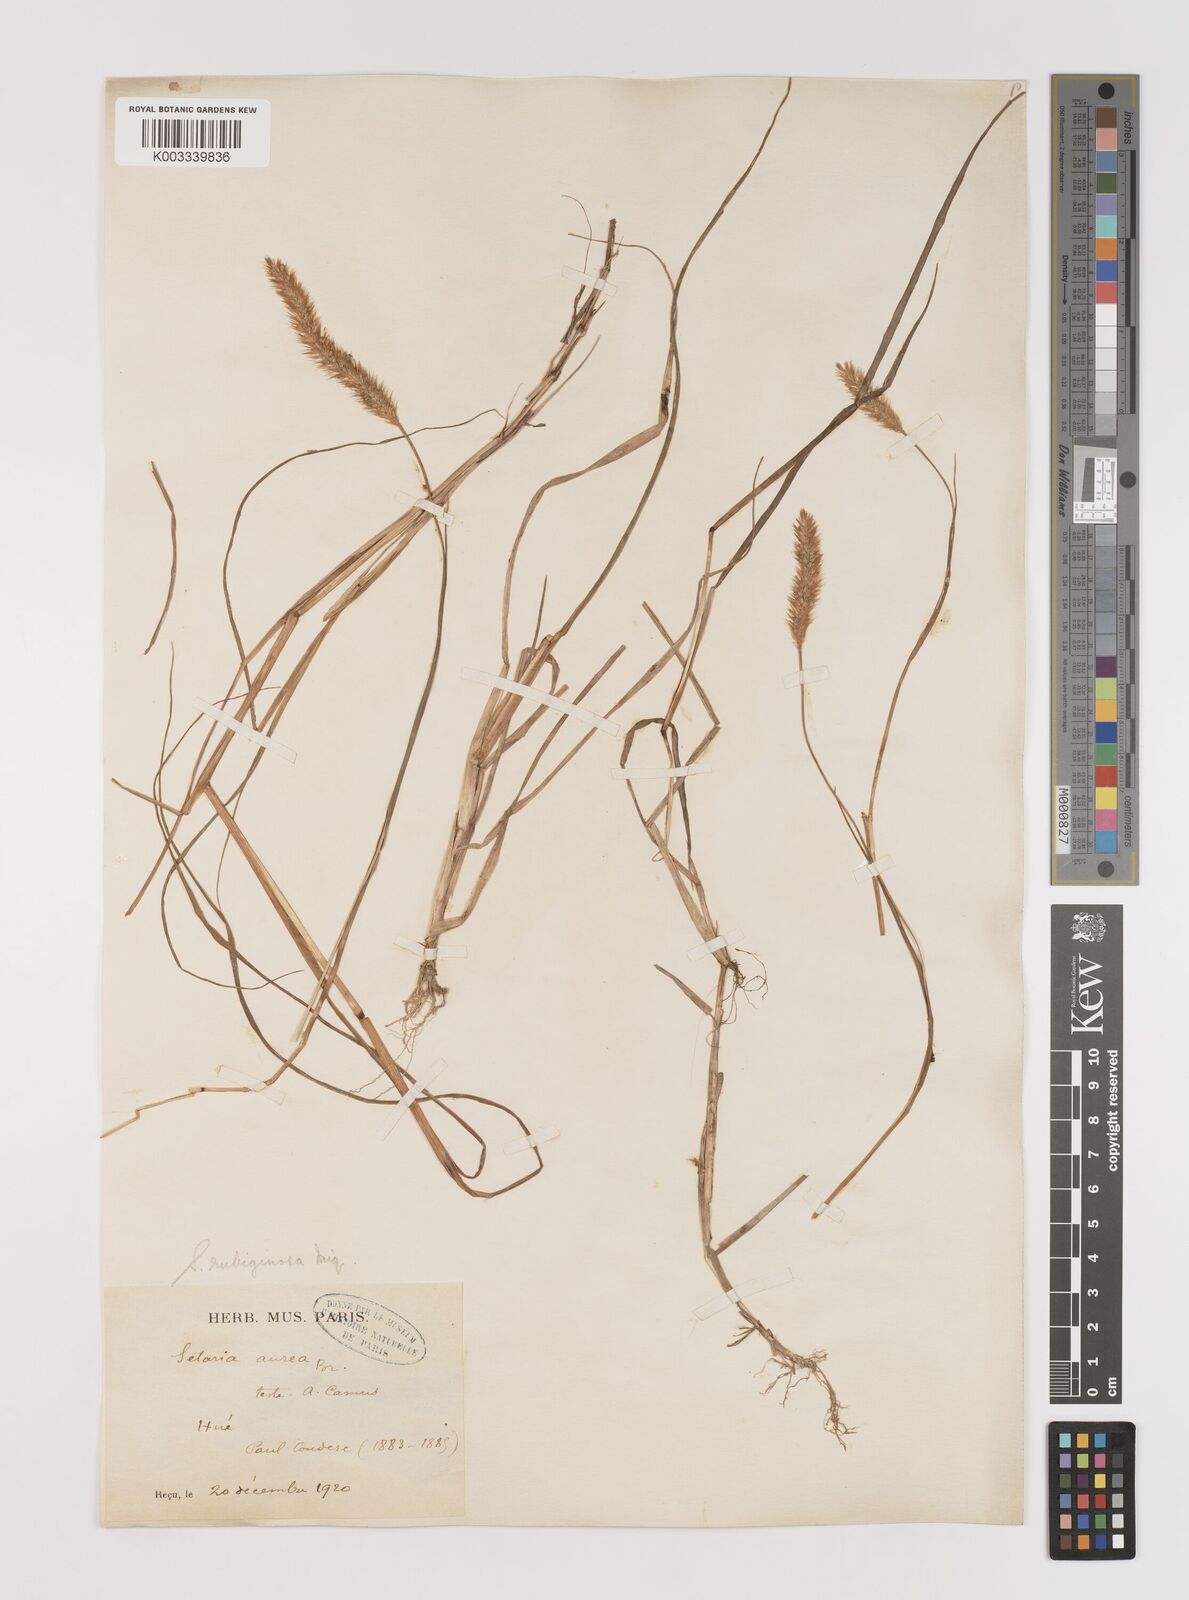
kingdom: Plantae
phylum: Tracheophyta
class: Liliopsida
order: Poales
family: Poaceae
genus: Setaria
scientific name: Setaria pumila
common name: Yellow bristle-grass
